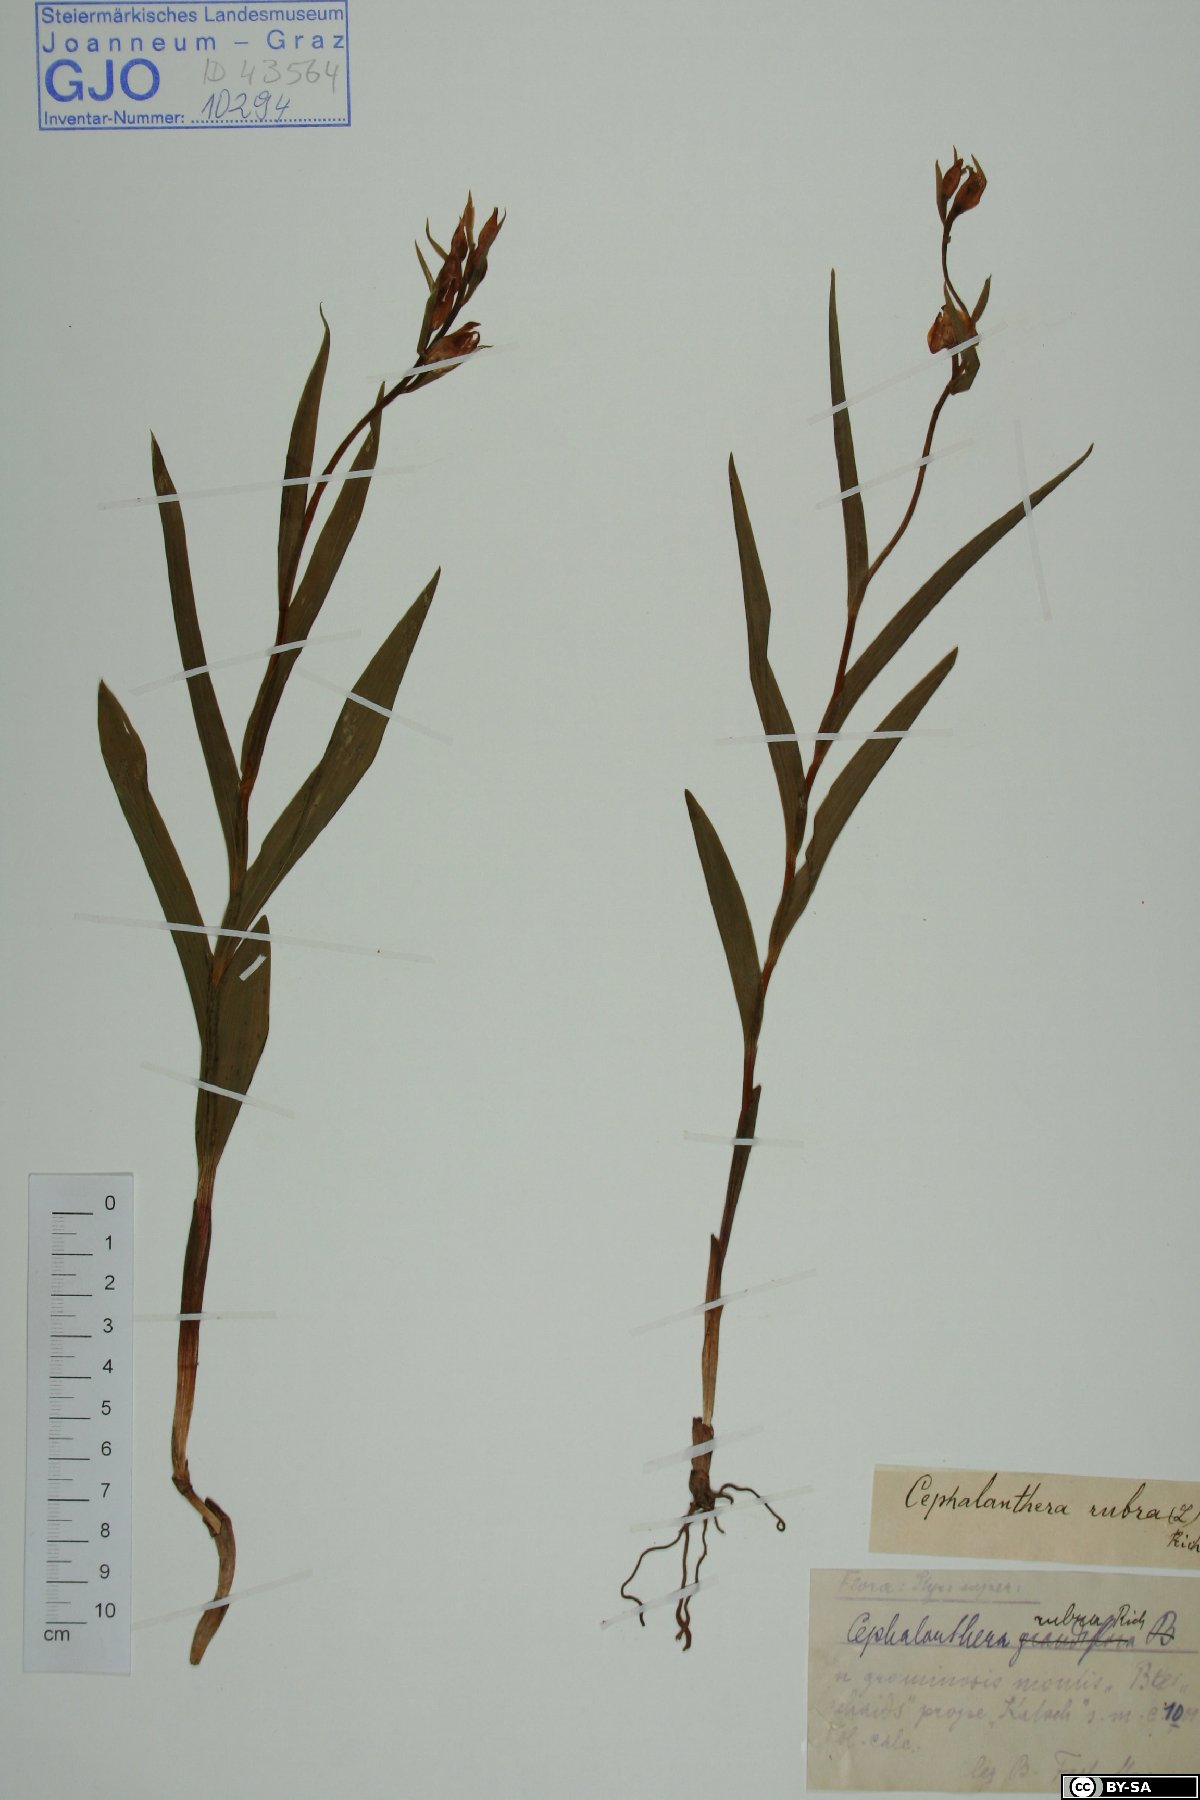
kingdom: Plantae
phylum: Tracheophyta
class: Liliopsida
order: Asparagales
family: Orchidaceae
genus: Cephalanthera
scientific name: Cephalanthera rubra
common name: Red helleborine
